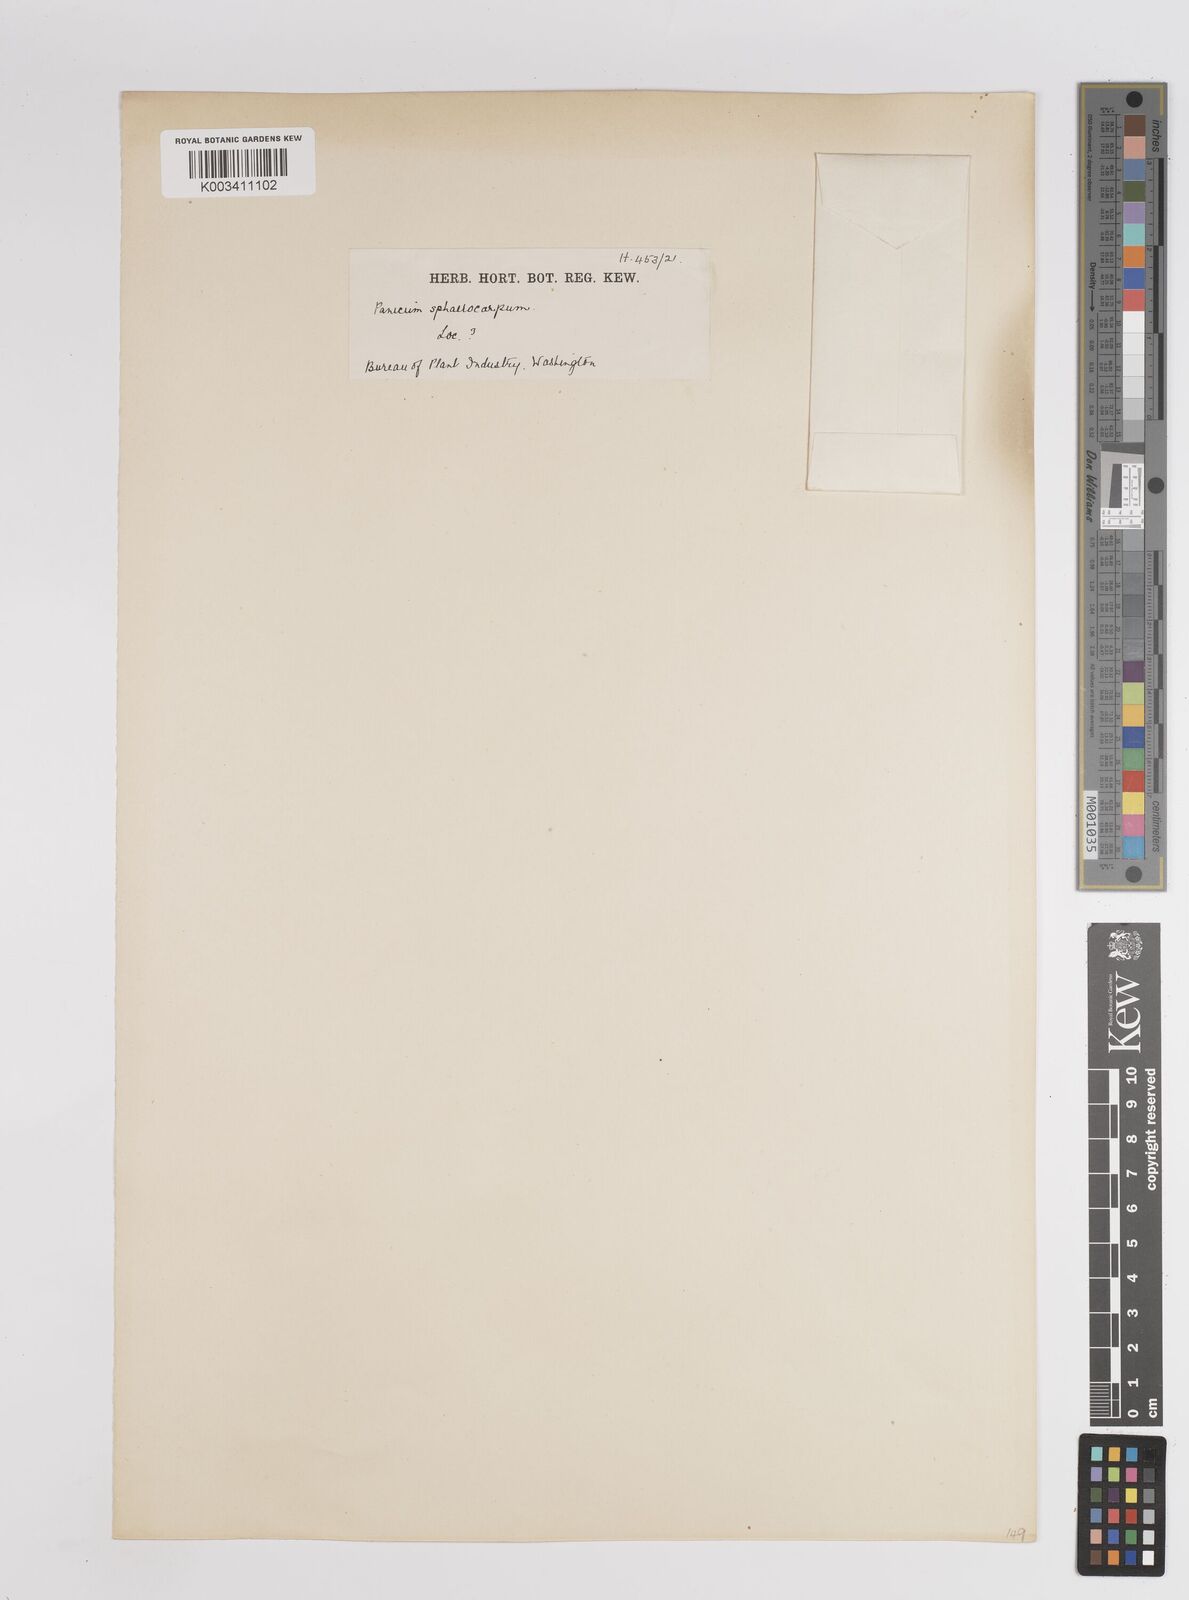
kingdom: Plantae
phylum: Tracheophyta
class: Liliopsida
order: Poales
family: Poaceae
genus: Dichanthelium
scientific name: Dichanthelium sphaerocarpon
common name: Round-fruited panicgrass
